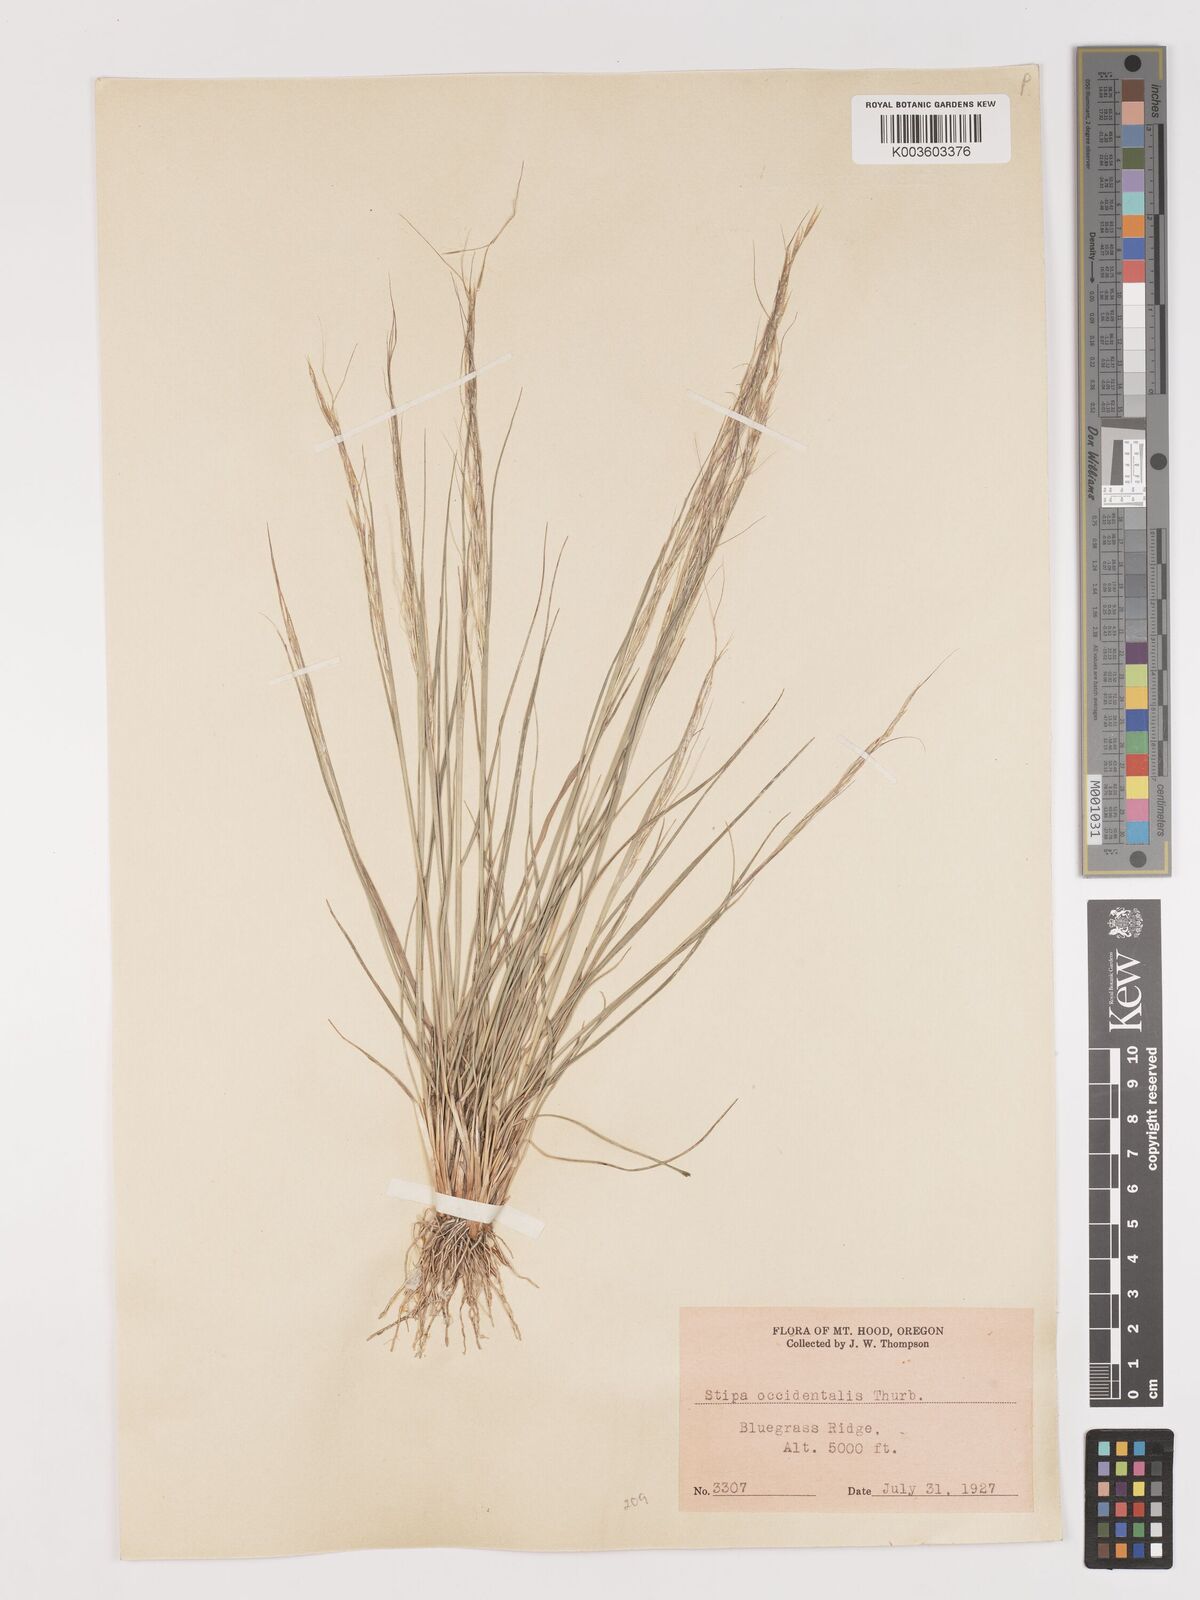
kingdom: Plantae
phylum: Tracheophyta
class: Liliopsida
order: Poales
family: Poaceae
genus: Eriocoma
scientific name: Eriocoma thurberiana
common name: Thurber's needlegrass
